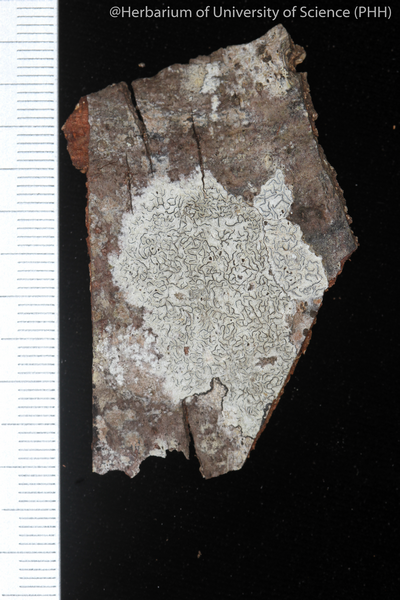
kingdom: Fungi
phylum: Ascomycota
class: Lecanoromycetes
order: Ostropales
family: Graphidaceae
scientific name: Graphidaceae
